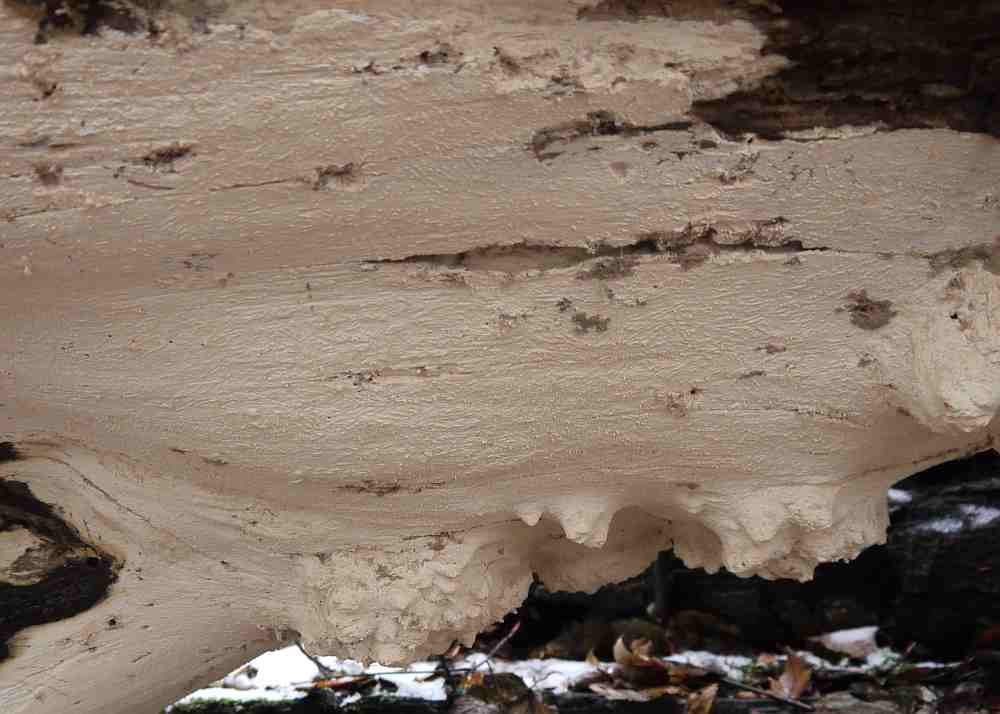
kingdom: Fungi
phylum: Basidiomycota
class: Agaricomycetes
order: Russulales
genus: Gloeohypochnicium
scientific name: Gloeohypochnicium analogum
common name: frugt-kalkskind
